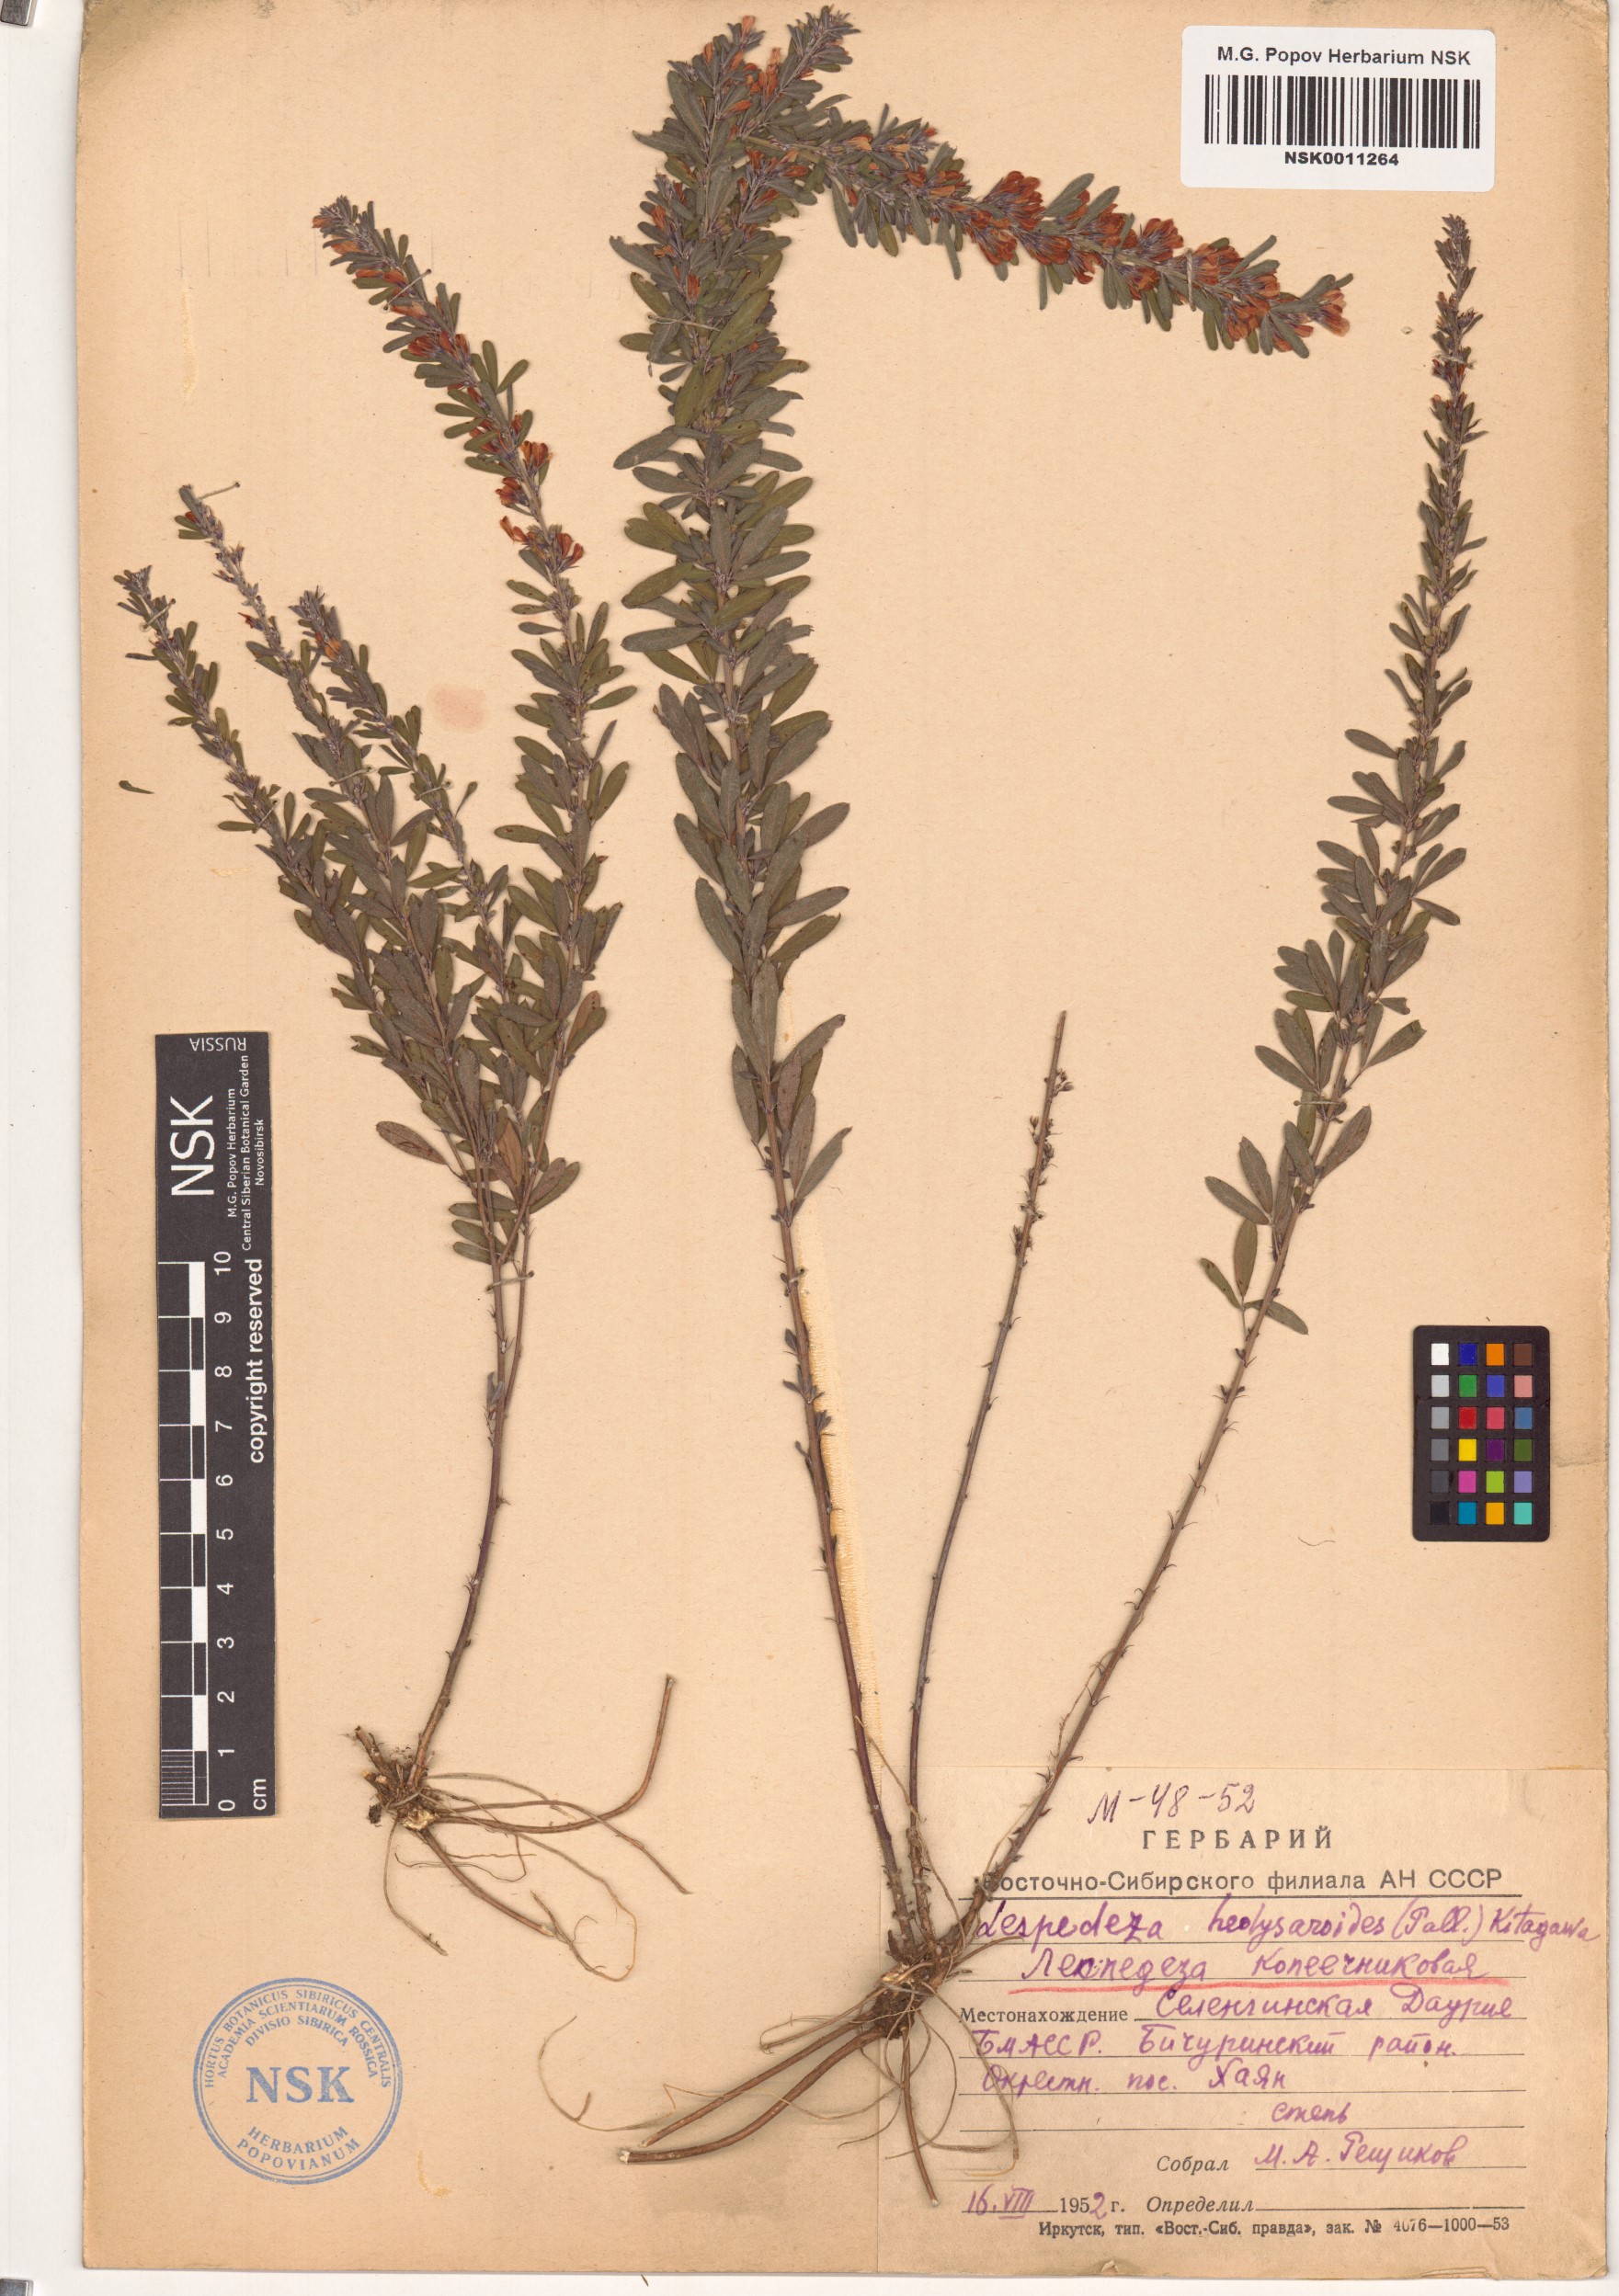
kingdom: Plantae
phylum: Tracheophyta
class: Magnoliopsida
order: Fabales
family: Fabaceae
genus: Lespedeza
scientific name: Lespedeza juncea
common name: Siberian lespedeza
